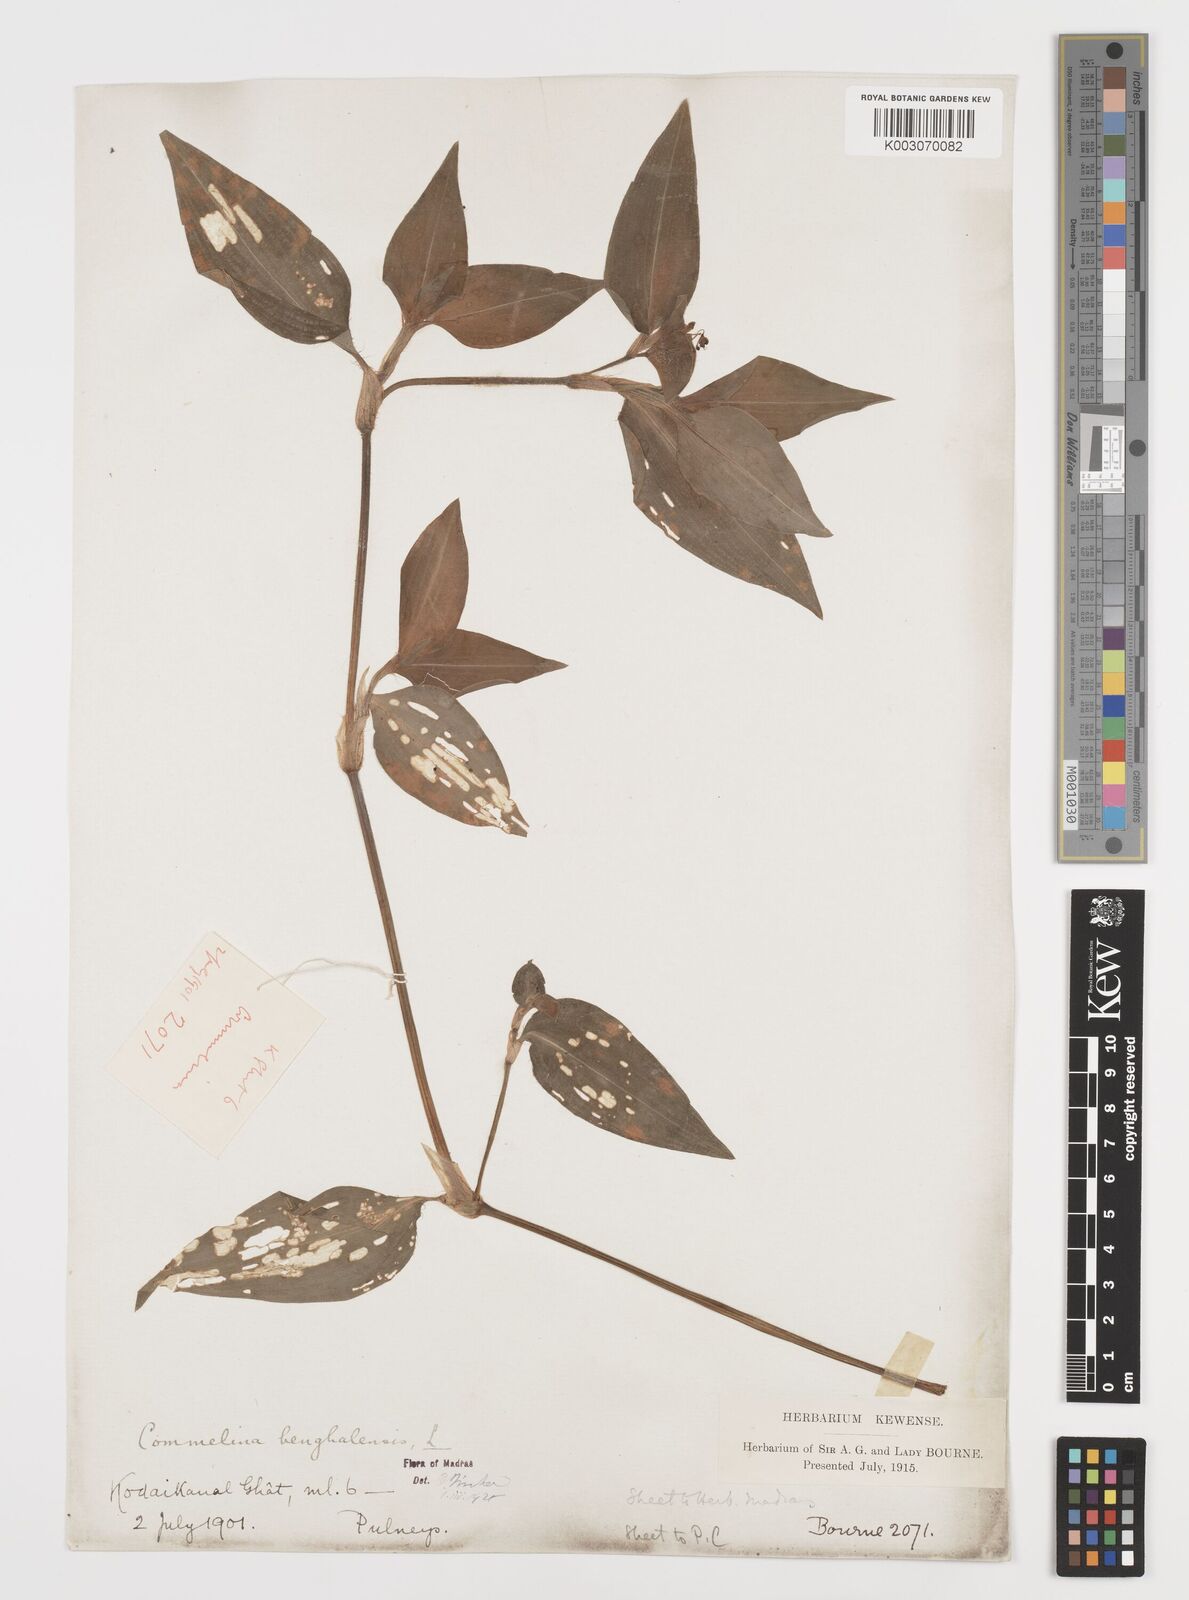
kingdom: Plantae
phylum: Tracheophyta
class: Liliopsida
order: Commelinales
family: Commelinaceae
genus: Commelina
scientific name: Commelina benghalensis
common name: Jio
